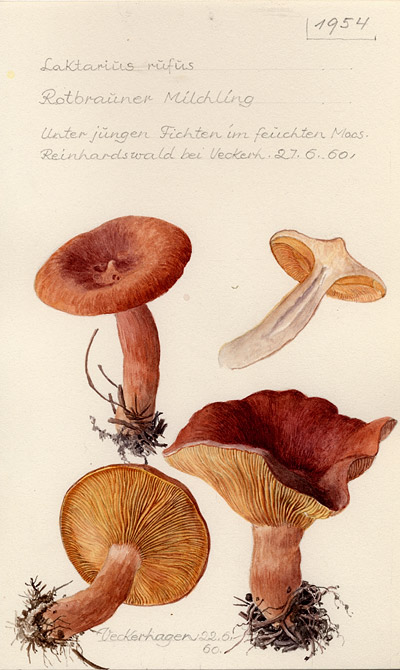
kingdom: Fungi
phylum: Basidiomycota
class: Agaricomycetes
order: Russulales
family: Russulaceae
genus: Lactarius
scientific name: Lactarius rufus
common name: Rufous milk-cap
